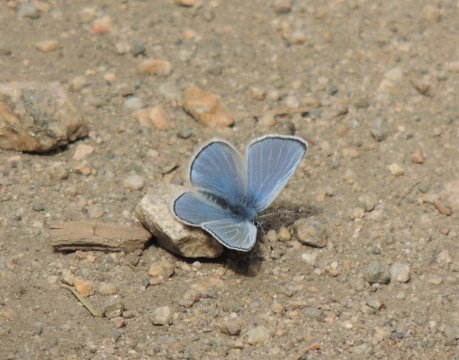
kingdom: Animalia
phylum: Arthropoda
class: Insecta
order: Lepidoptera
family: Lycaenidae
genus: Glaucopsyche
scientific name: Glaucopsyche lygdamus
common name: Silvery Blue
